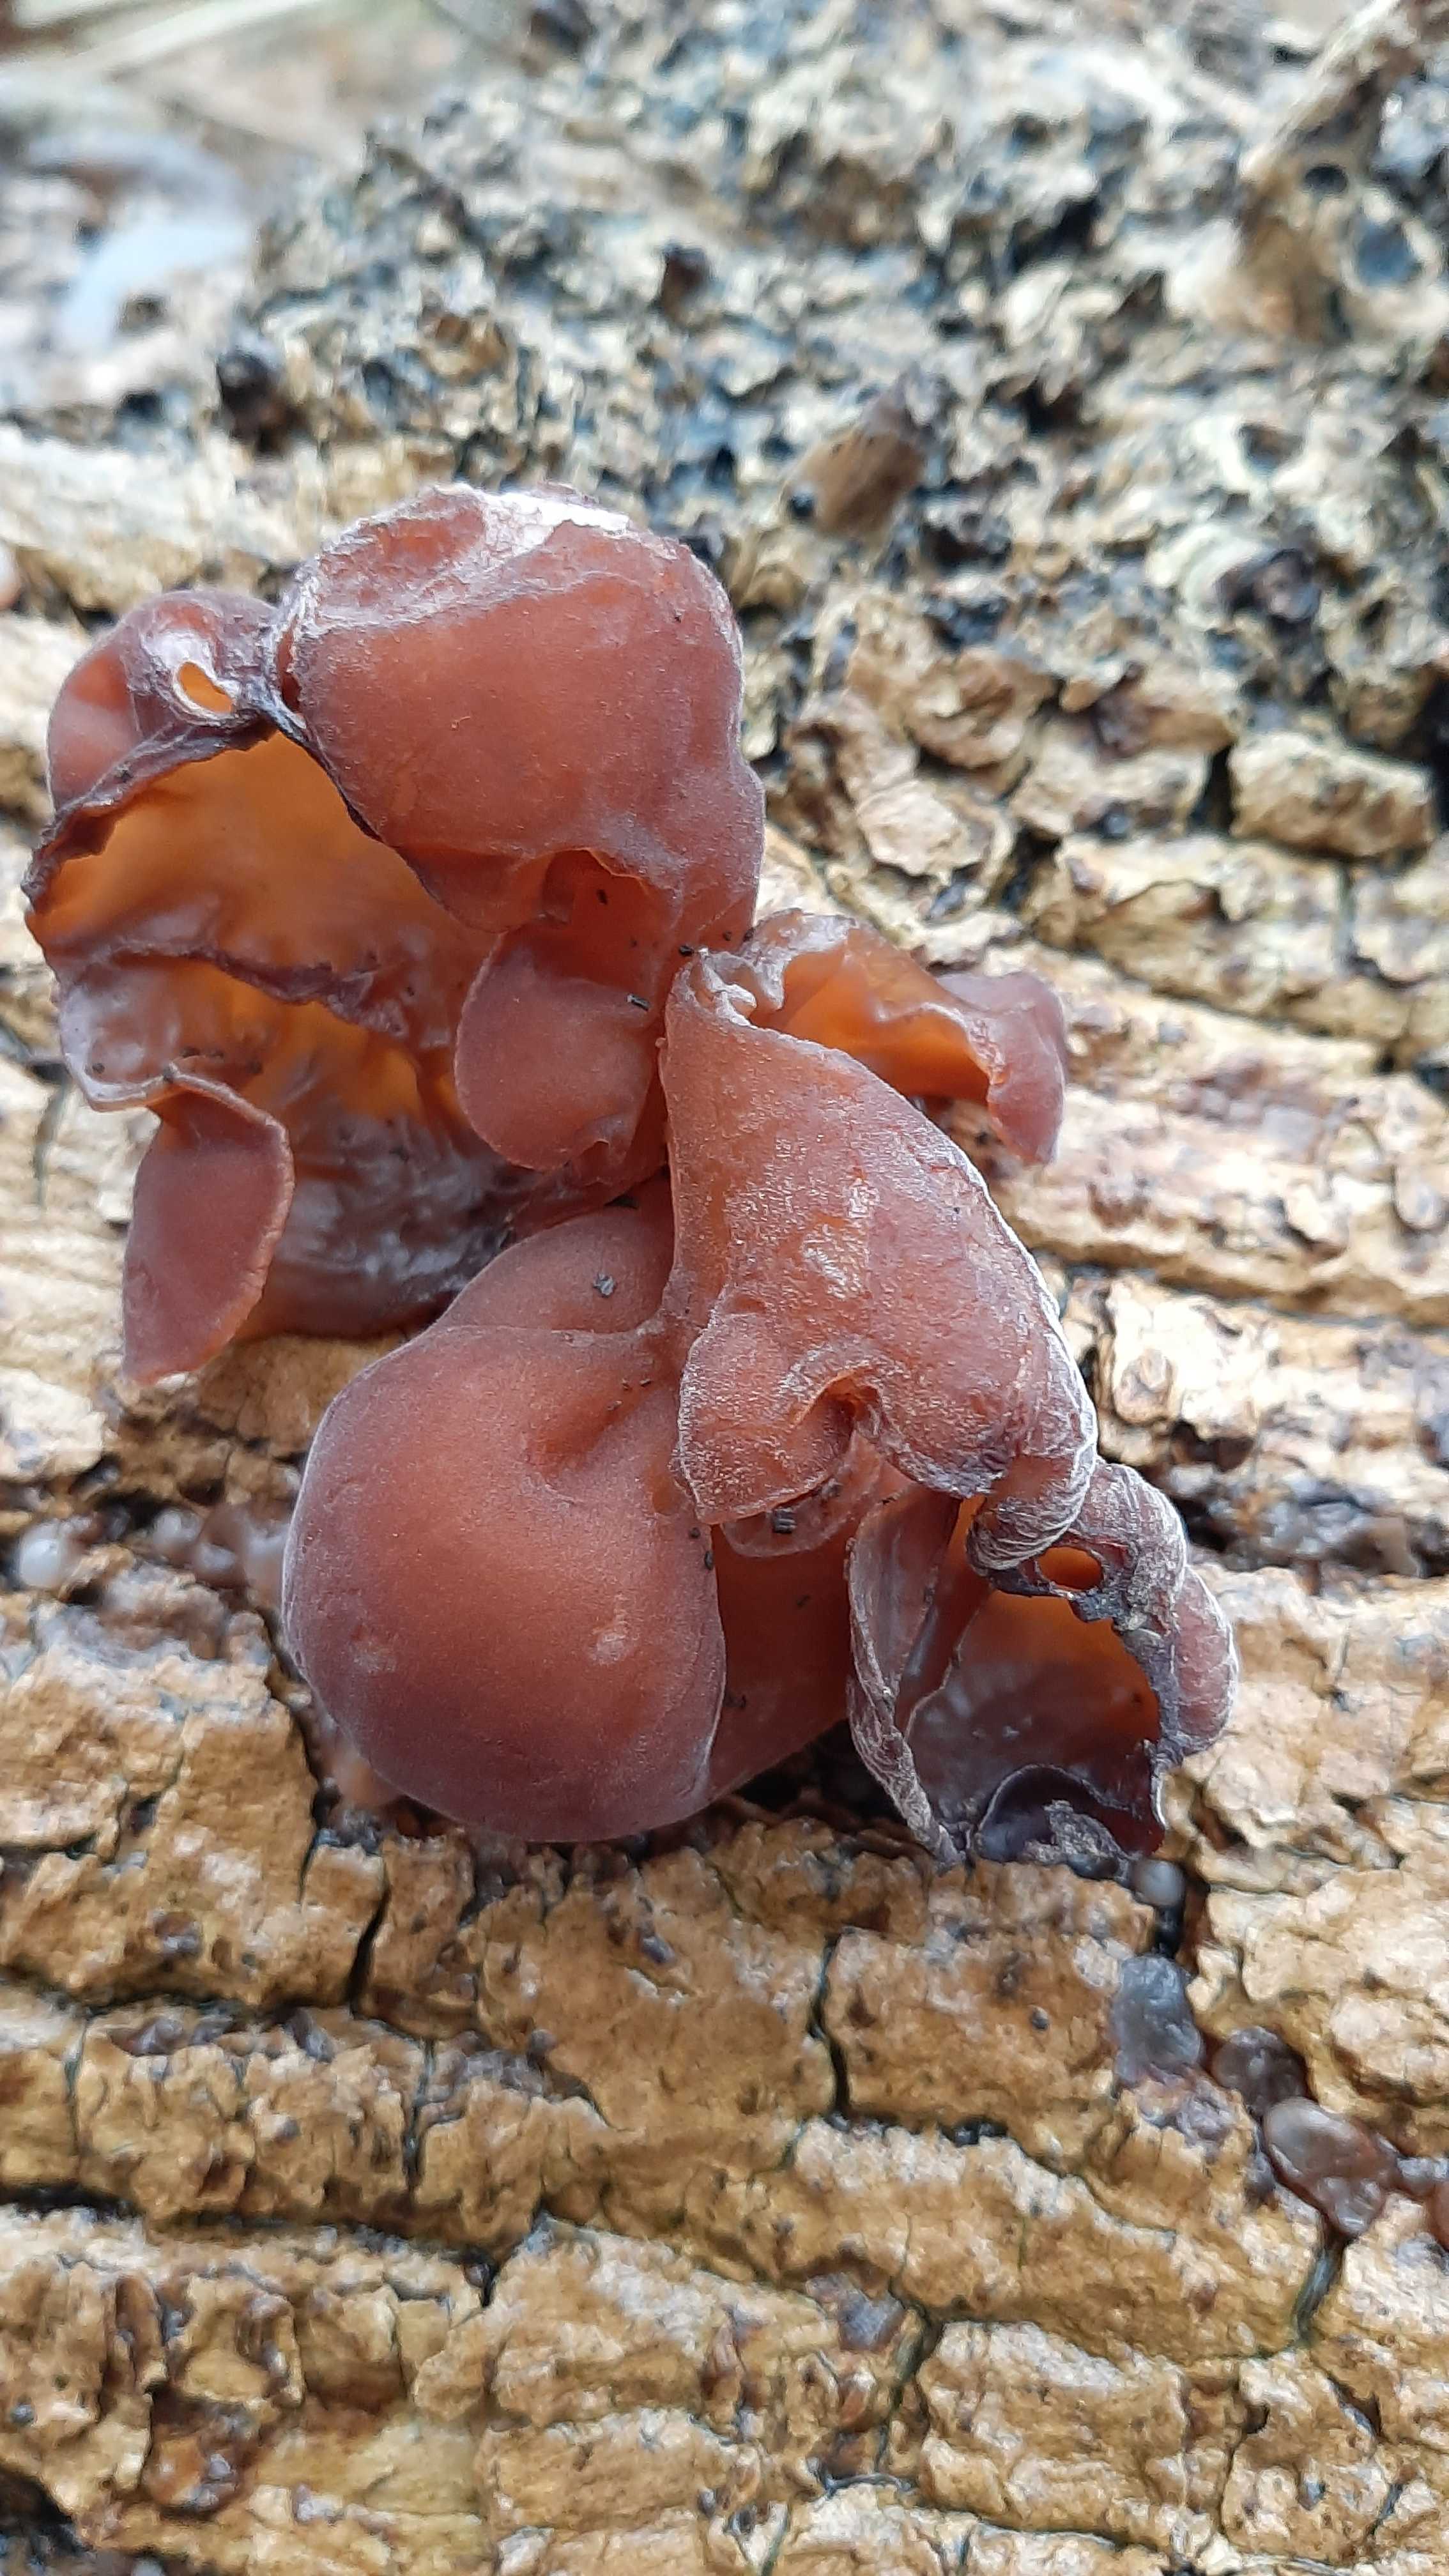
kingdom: Fungi
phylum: Basidiomycota
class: Agaricomycetes
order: Auriculariales
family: Auriculariaceae
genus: Auricularia
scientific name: Auricularia auricula-judae
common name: almindelig judasøre
